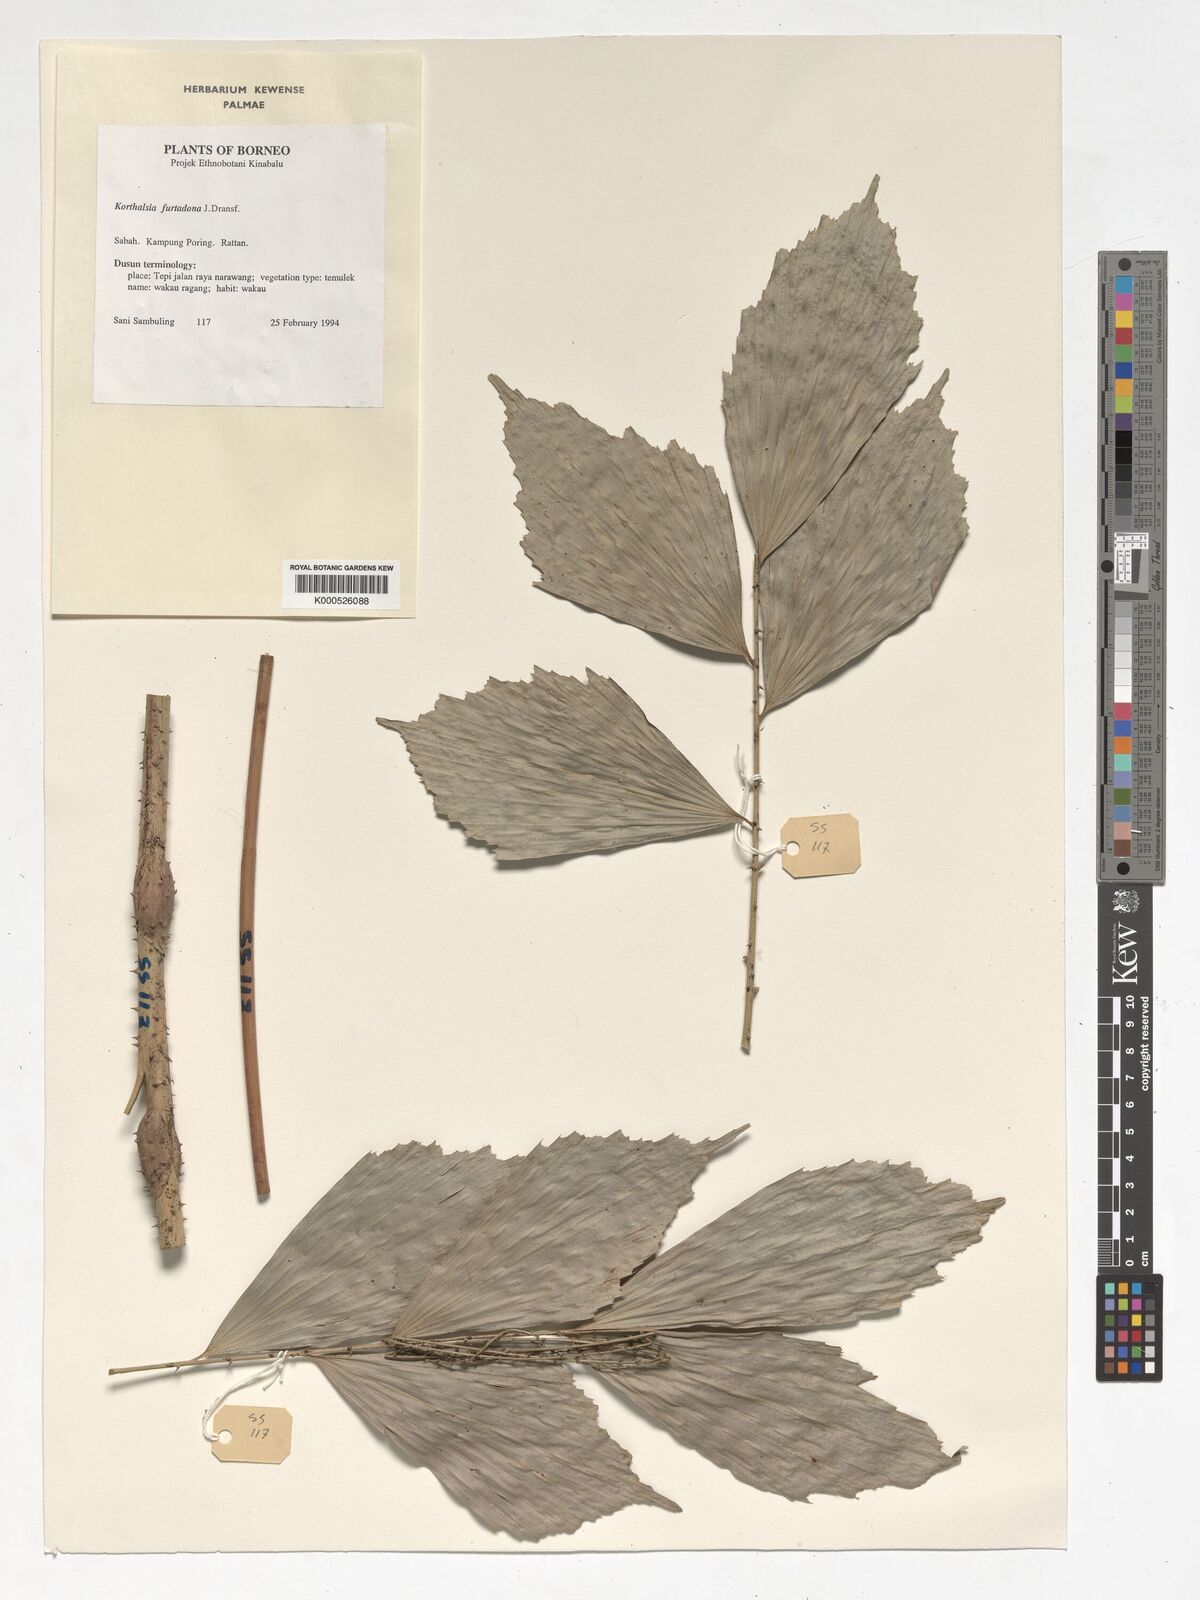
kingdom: Plantae
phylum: Tracheophyta
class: Liliopsida
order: Arecales
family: Arecaceae
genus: Korthalsia
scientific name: Korthalsia furtadoana
